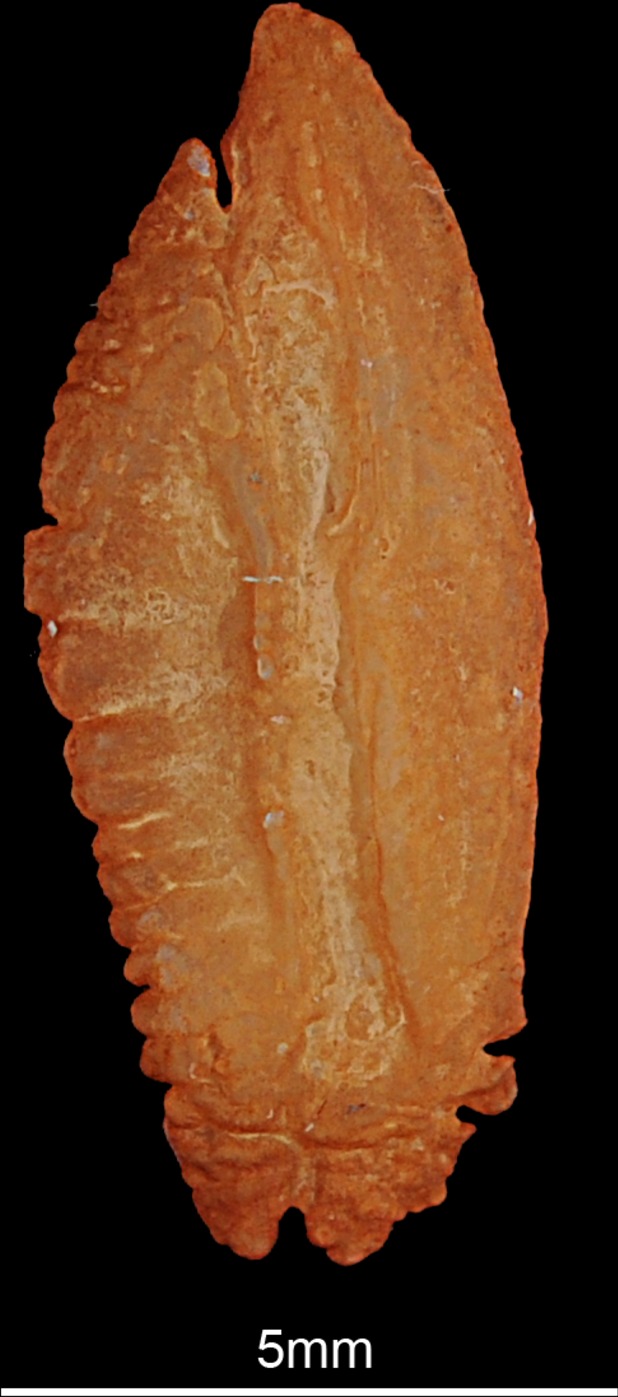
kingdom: Animalia
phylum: Chordata
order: Perciformes
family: Percidae
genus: Sander
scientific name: Sander lucioperca
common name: Pikeperch
